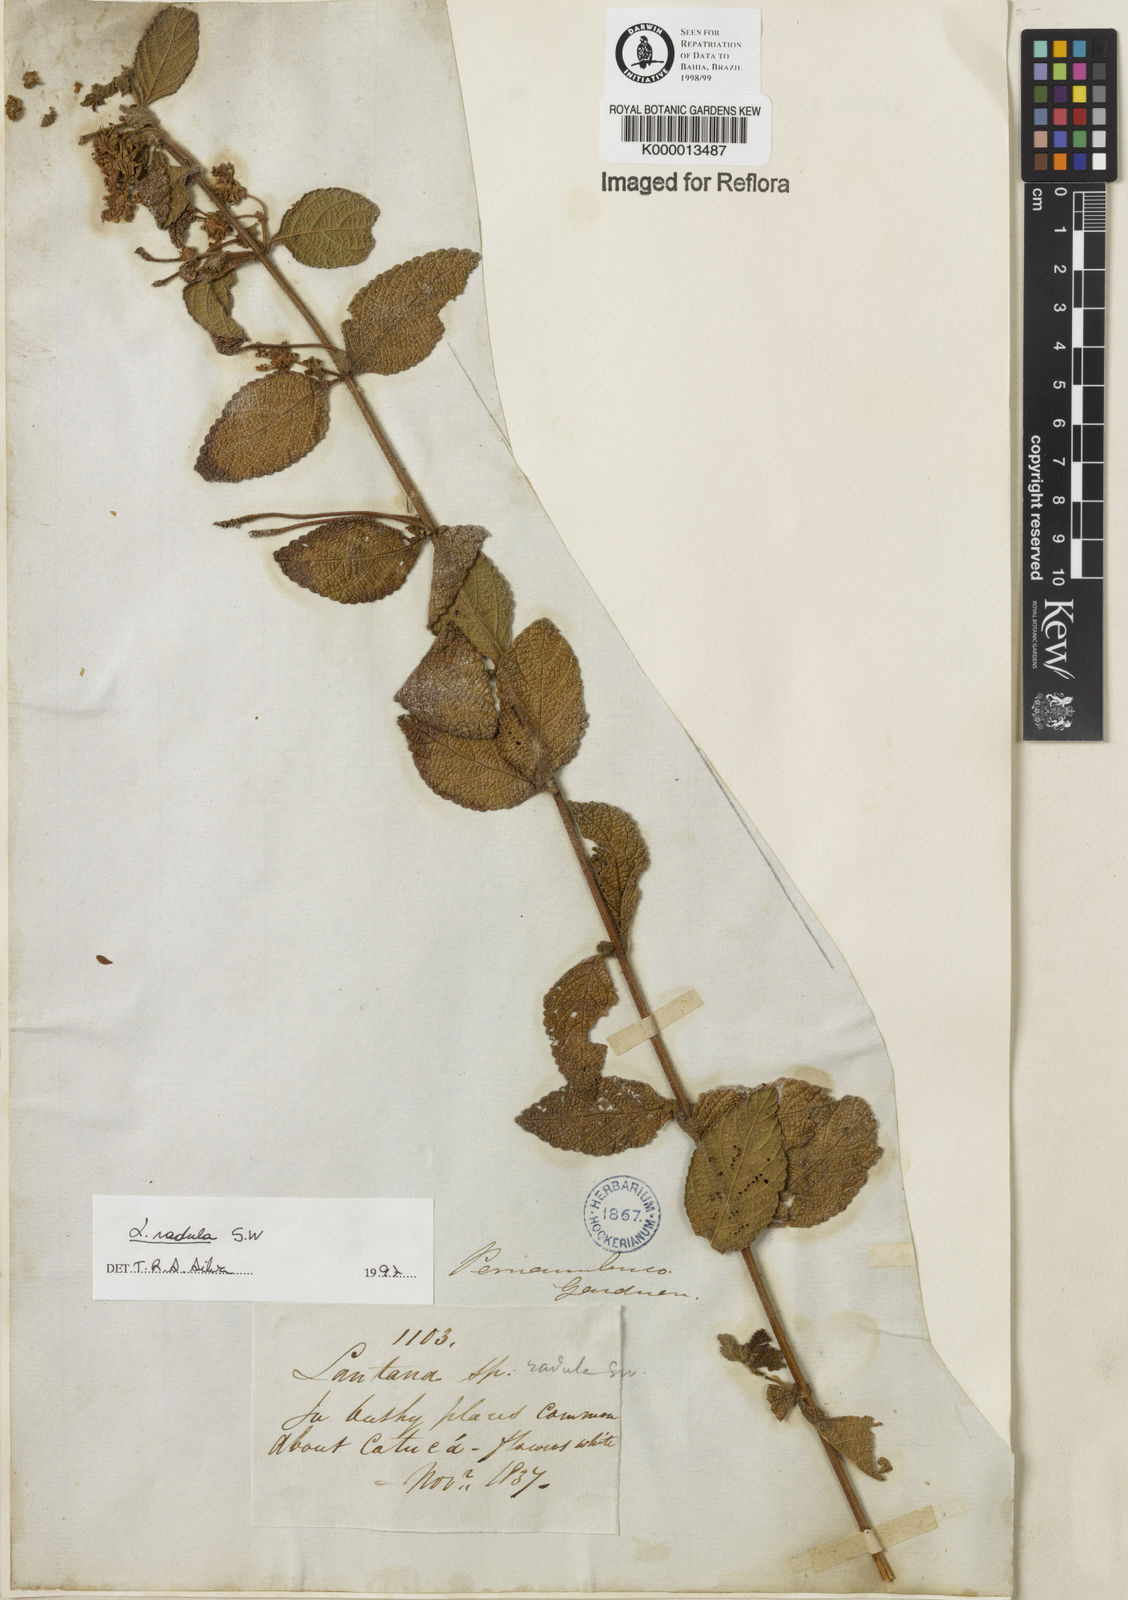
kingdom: Plantae
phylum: Tracheophyta
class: Magnoliopsida
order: Lamiales
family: Verbenaceae
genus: Lantana
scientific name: Lantana radula
